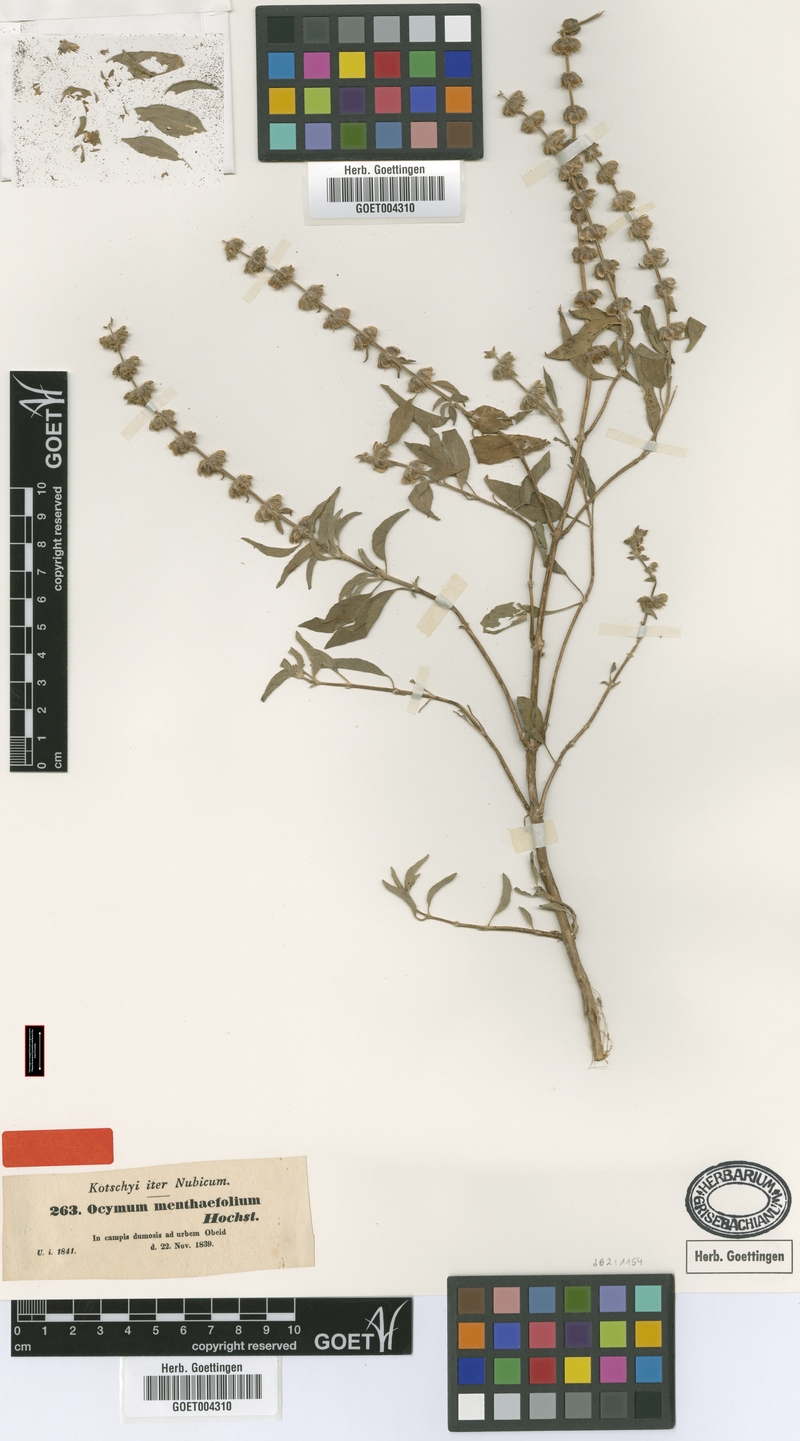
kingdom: Plantae
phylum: Tracheophyta
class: Magnoliopsida
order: Lamiales
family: Lamiaceae
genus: Ocimum
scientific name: Ocimum forskoelei
